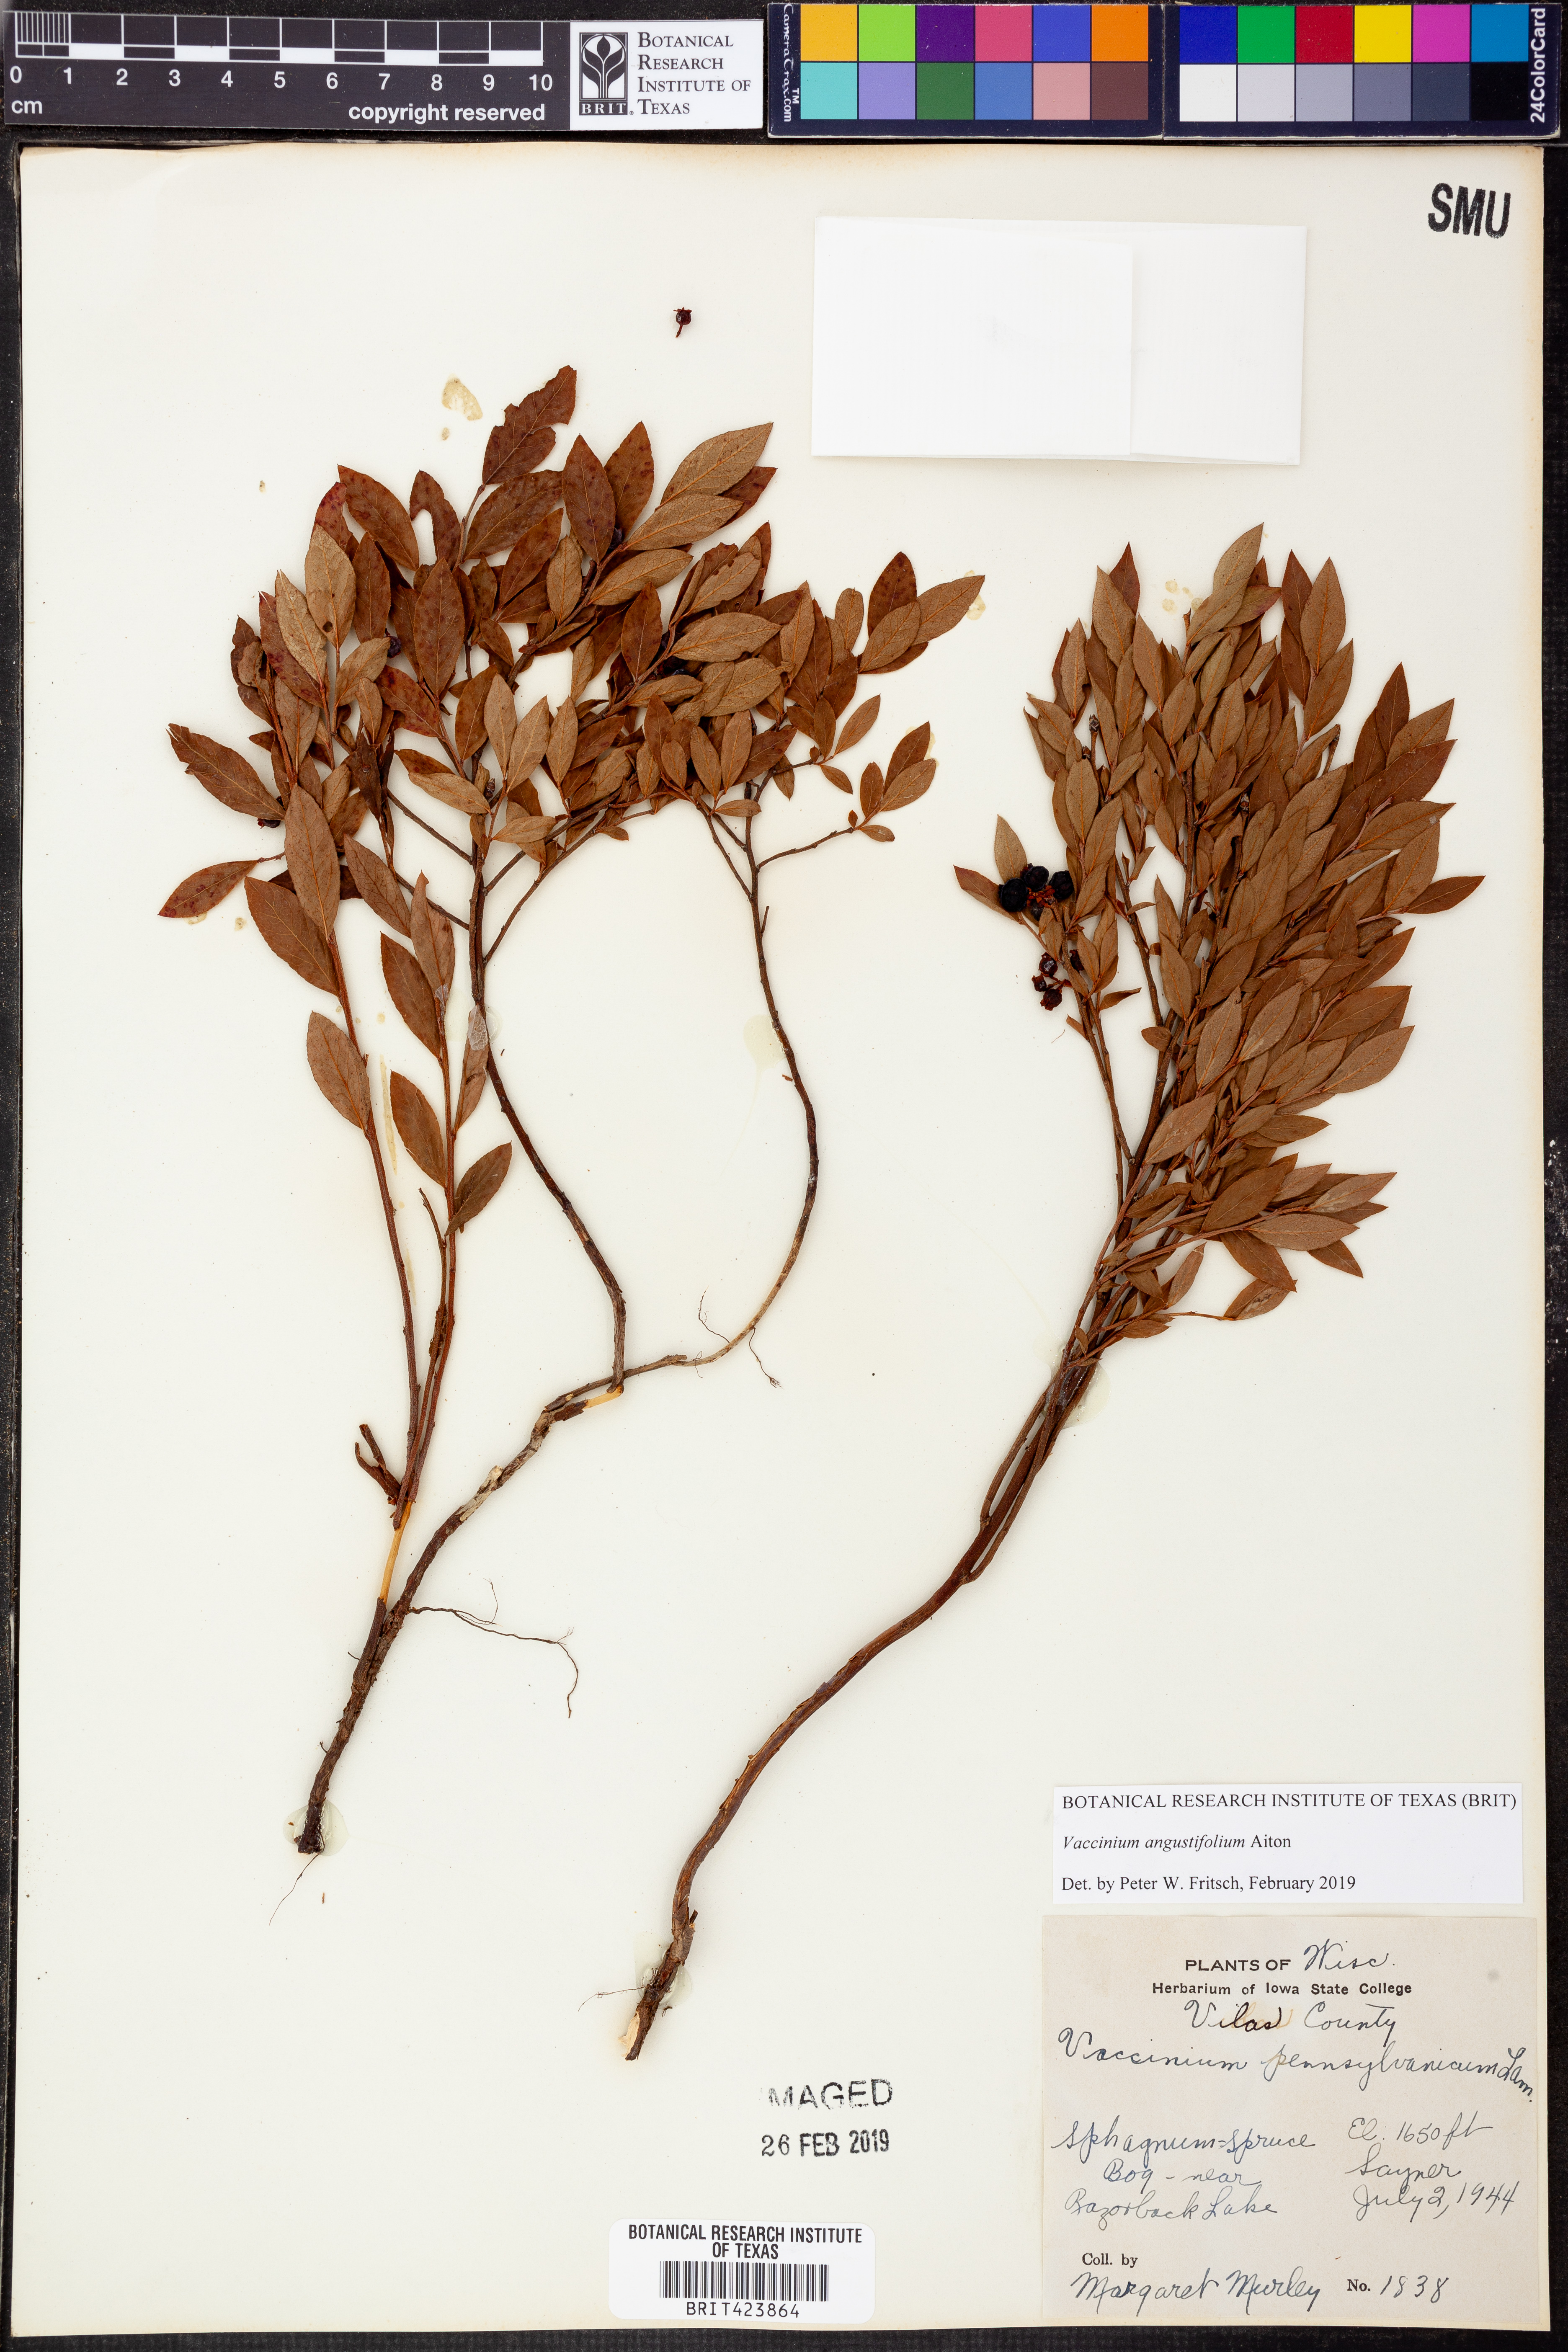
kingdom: Plantae
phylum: Tracheophyta
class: Magnoliopsida
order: Ericales
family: Ericaceae
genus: Vaccinium
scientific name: Vaccinium angustifolium
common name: Early lowbush blueberry
